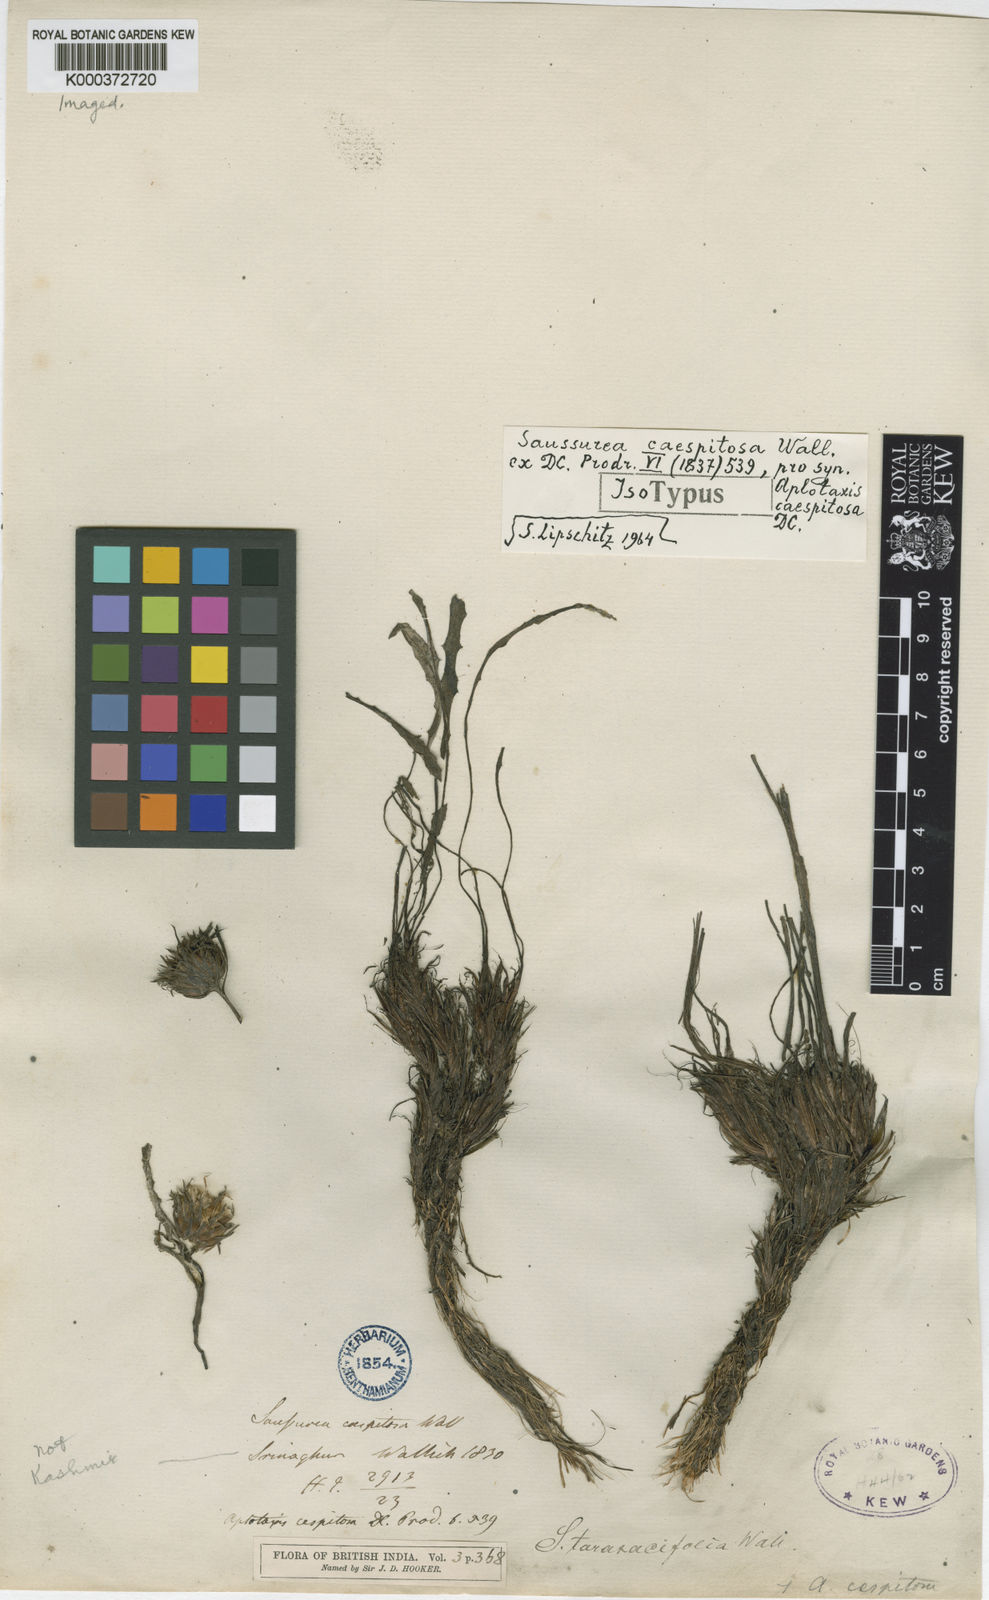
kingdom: Plantae
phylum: Tracheophyta
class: Magnoliopsida
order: Asterales
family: Asteraceae
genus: Saussurea
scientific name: Saussurea
